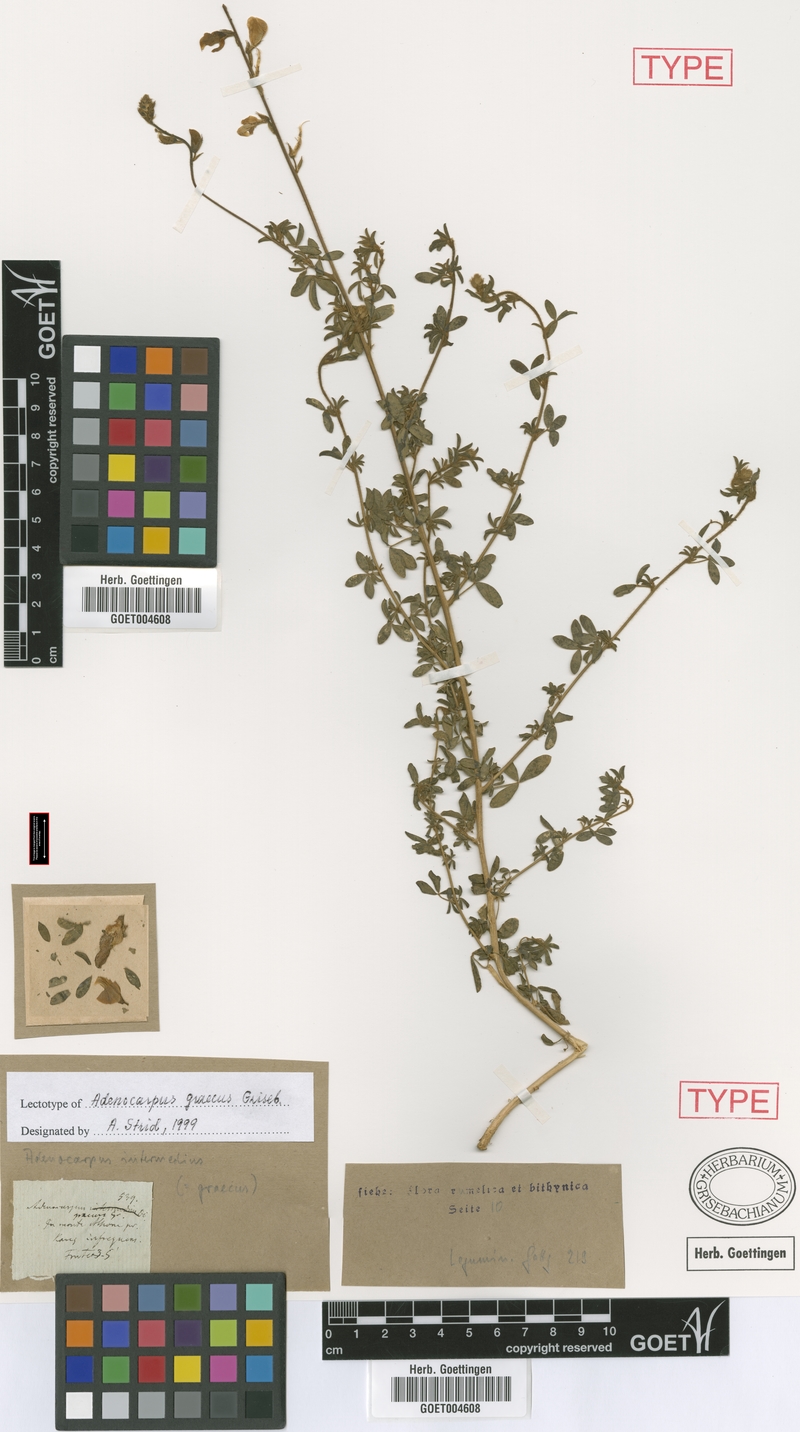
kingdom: Plantae
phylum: Tracheophyta
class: Magnoliopsida
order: Fabales
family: Fabaceae
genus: Adenocarpus
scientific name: Adenocarpus complicatus
